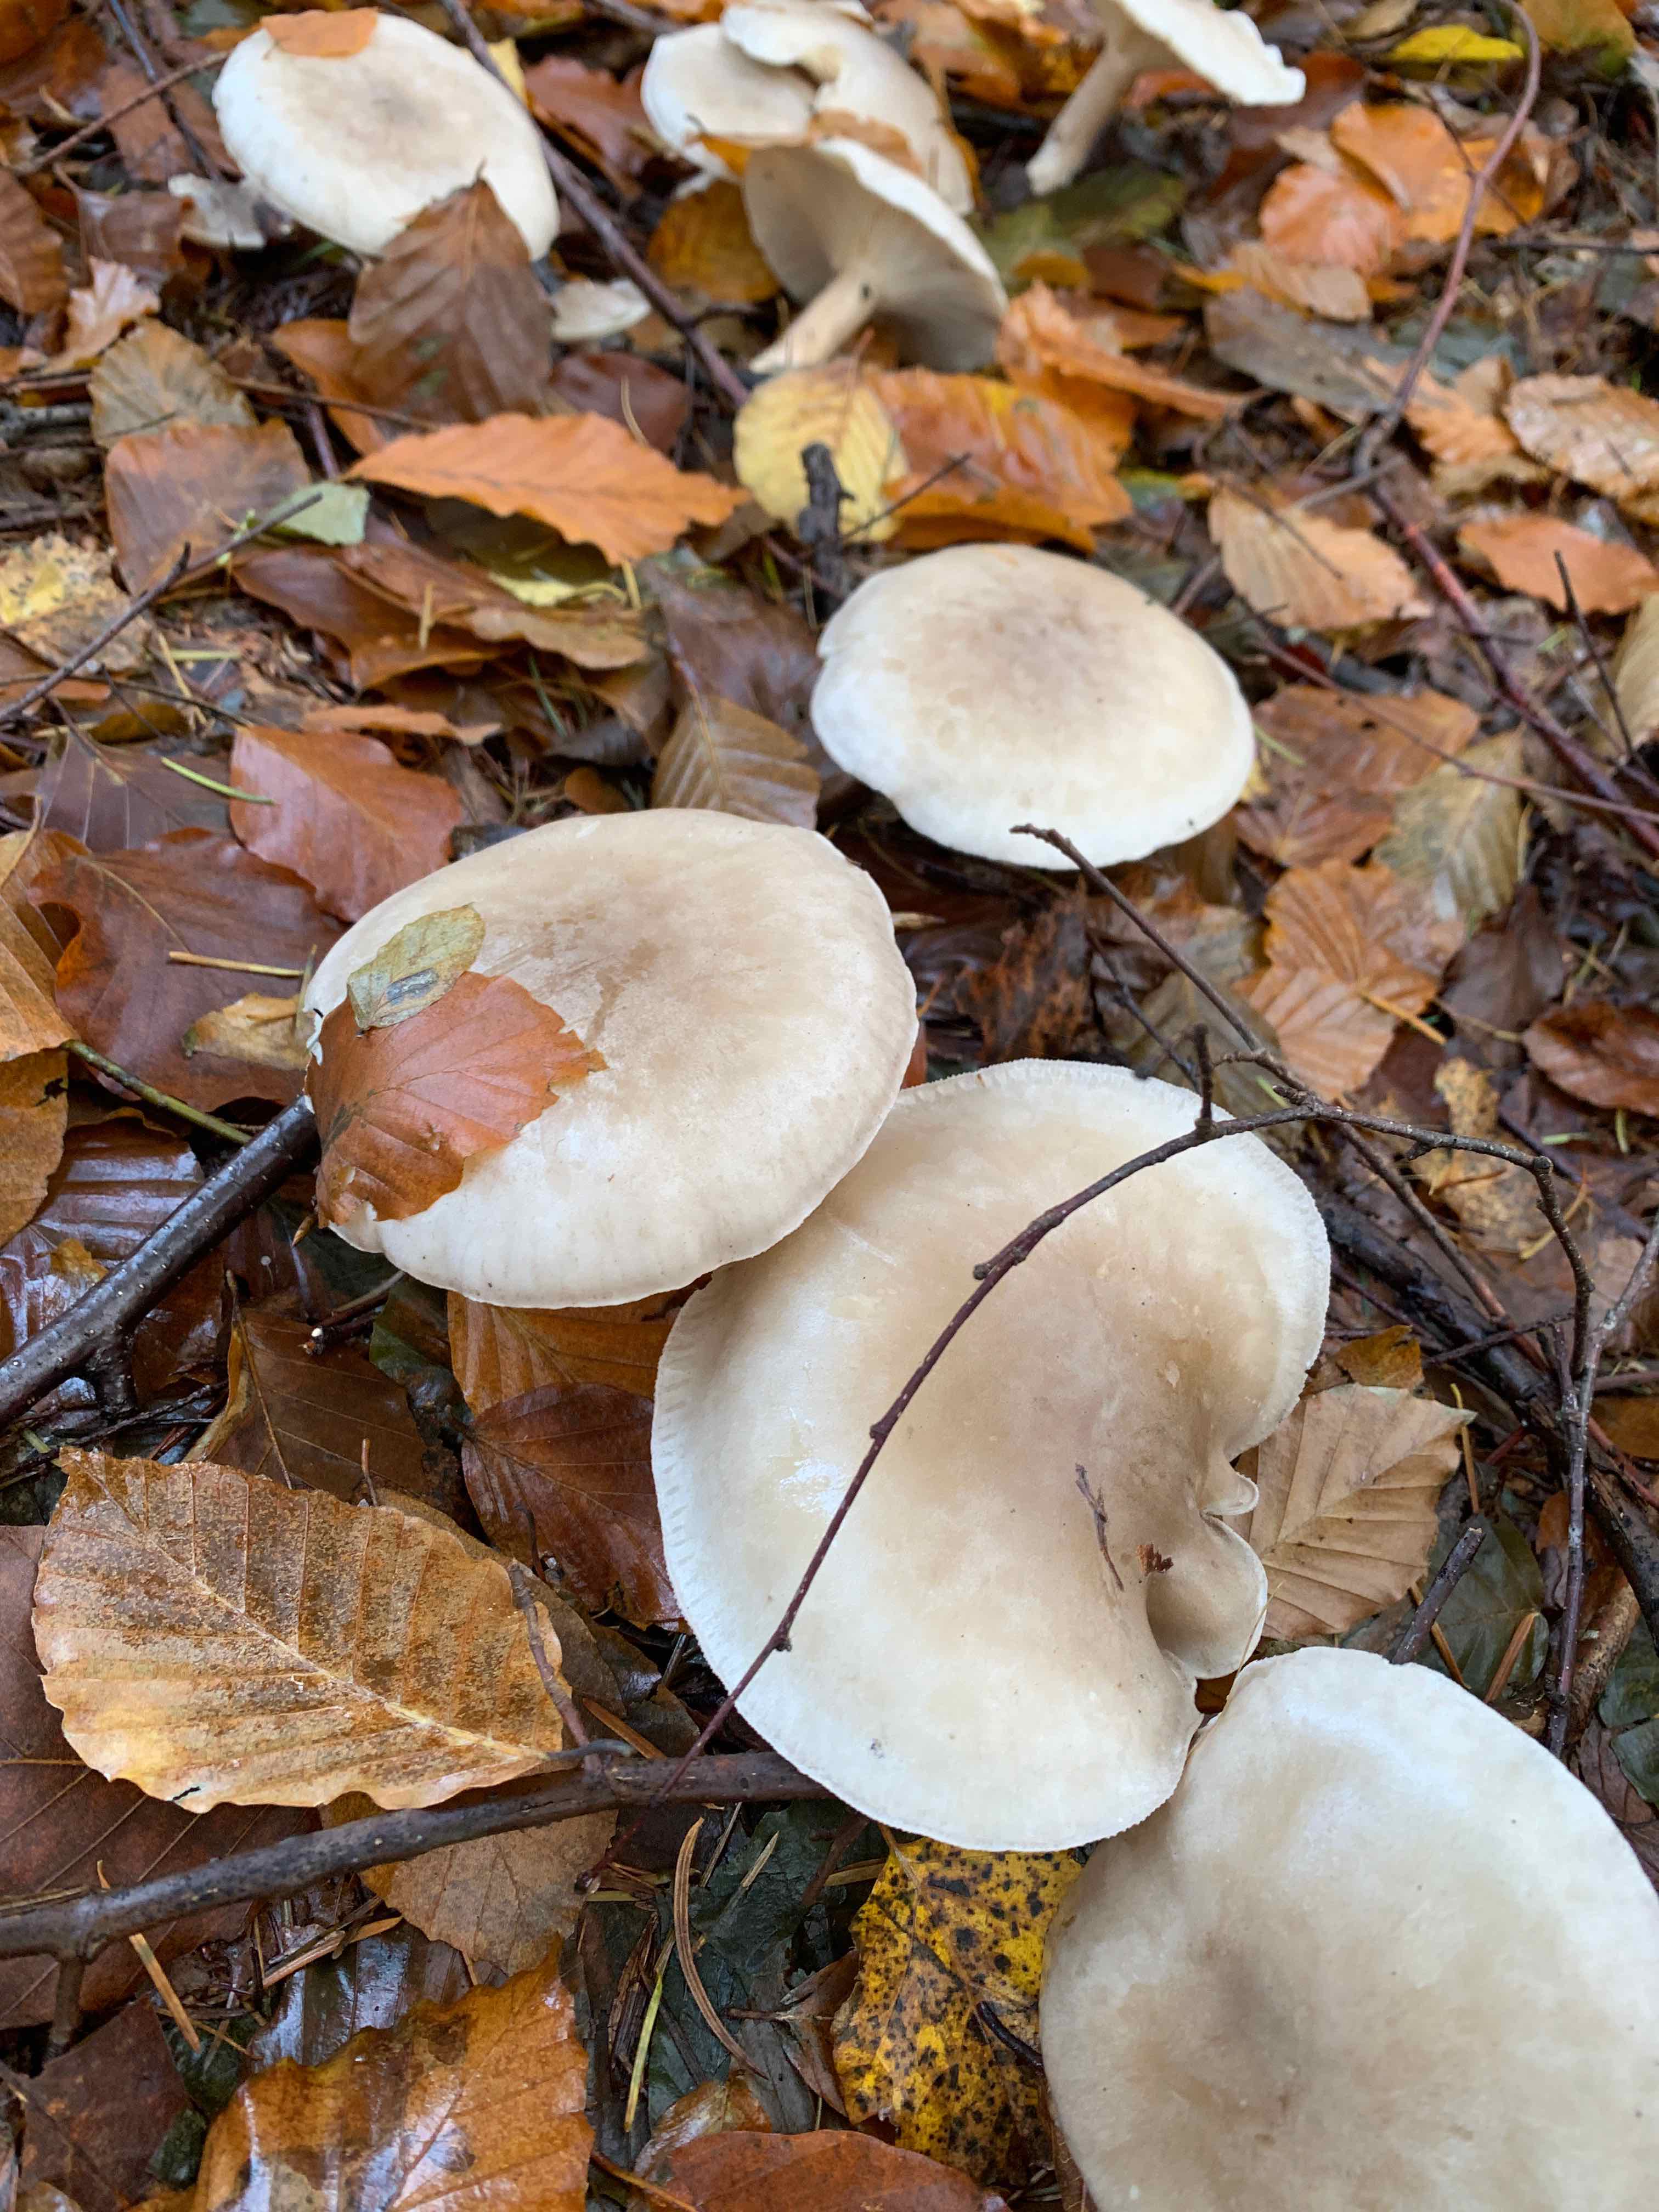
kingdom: Fungi
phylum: Basidiomycota
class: Agaricomycetes
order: Agaricales
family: Tricholomataceae
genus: Clitocybe
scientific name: Clitocybe nebularis
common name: tåge-tragthat
